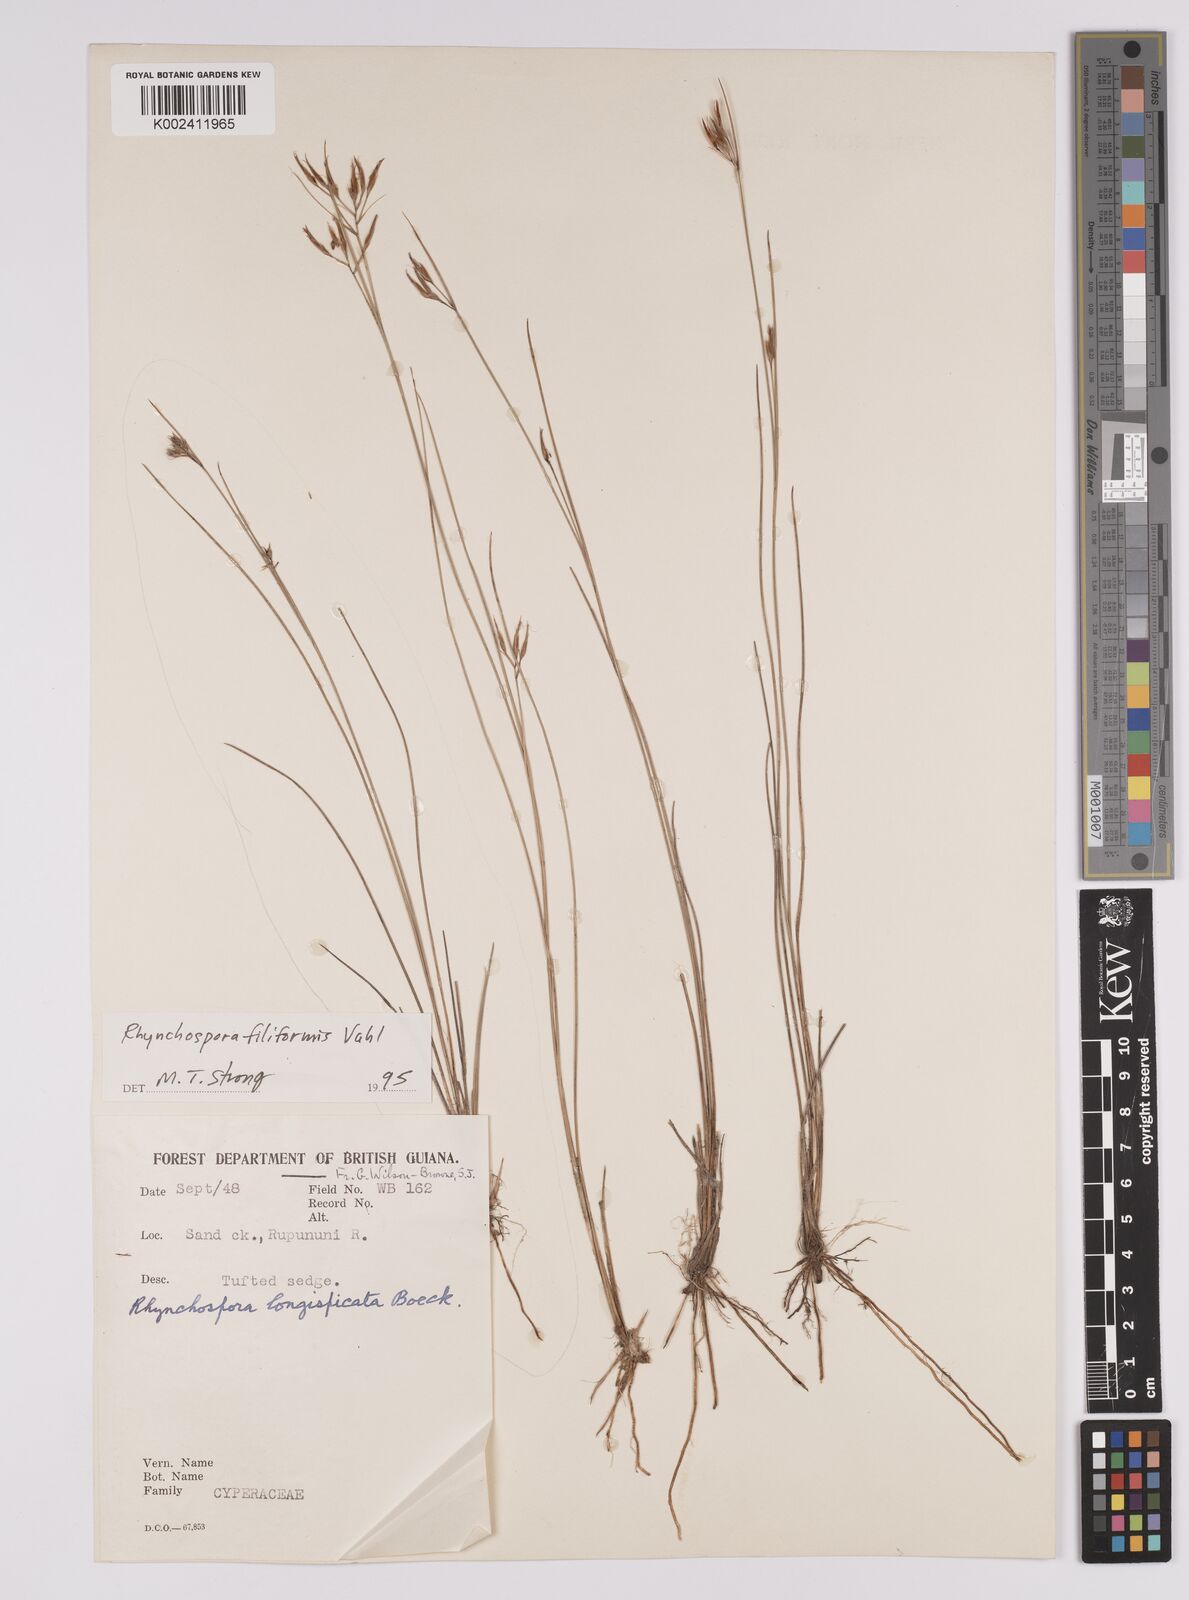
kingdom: Plantae
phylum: Tracheophyta
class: Liliopsida
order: Poales
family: Cyperaceae
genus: Rhynchospora
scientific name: Rhynchospora filiformis
